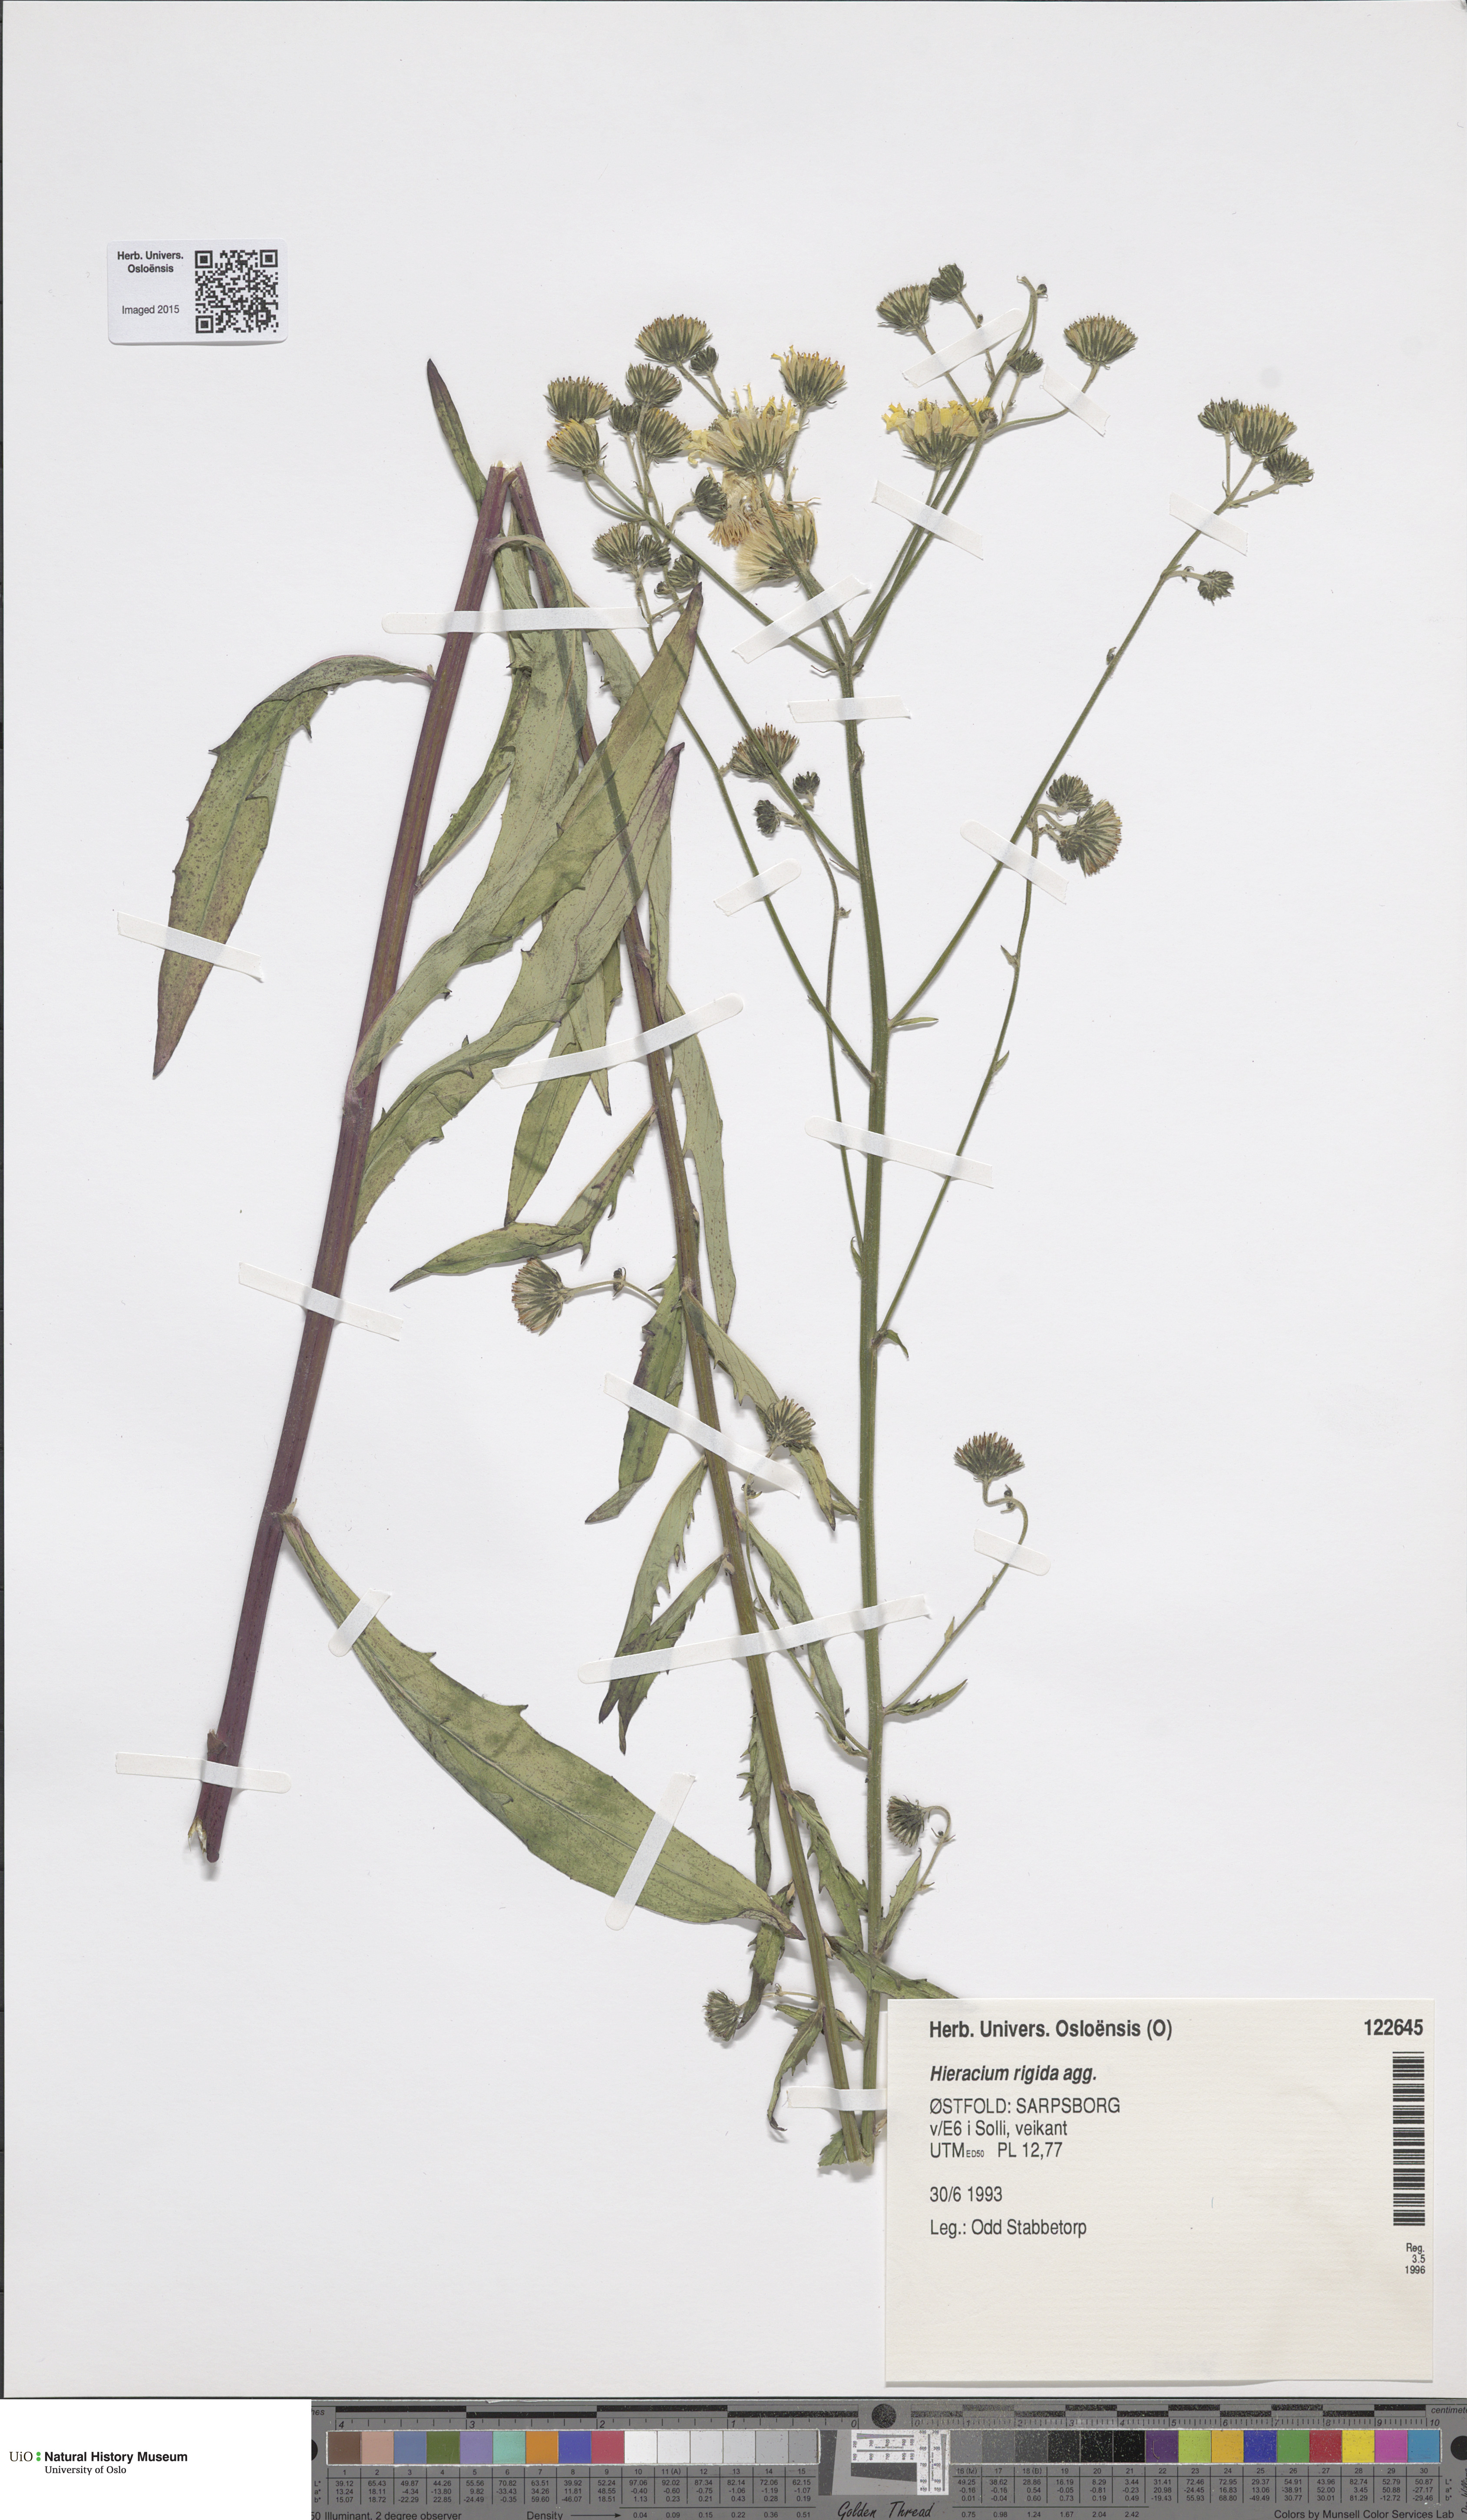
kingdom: Plantae
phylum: Tracheophyta
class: Magnoliopsida
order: Asterales
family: Asteraceae
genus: Hieracium
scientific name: Hieracium tridentatum
